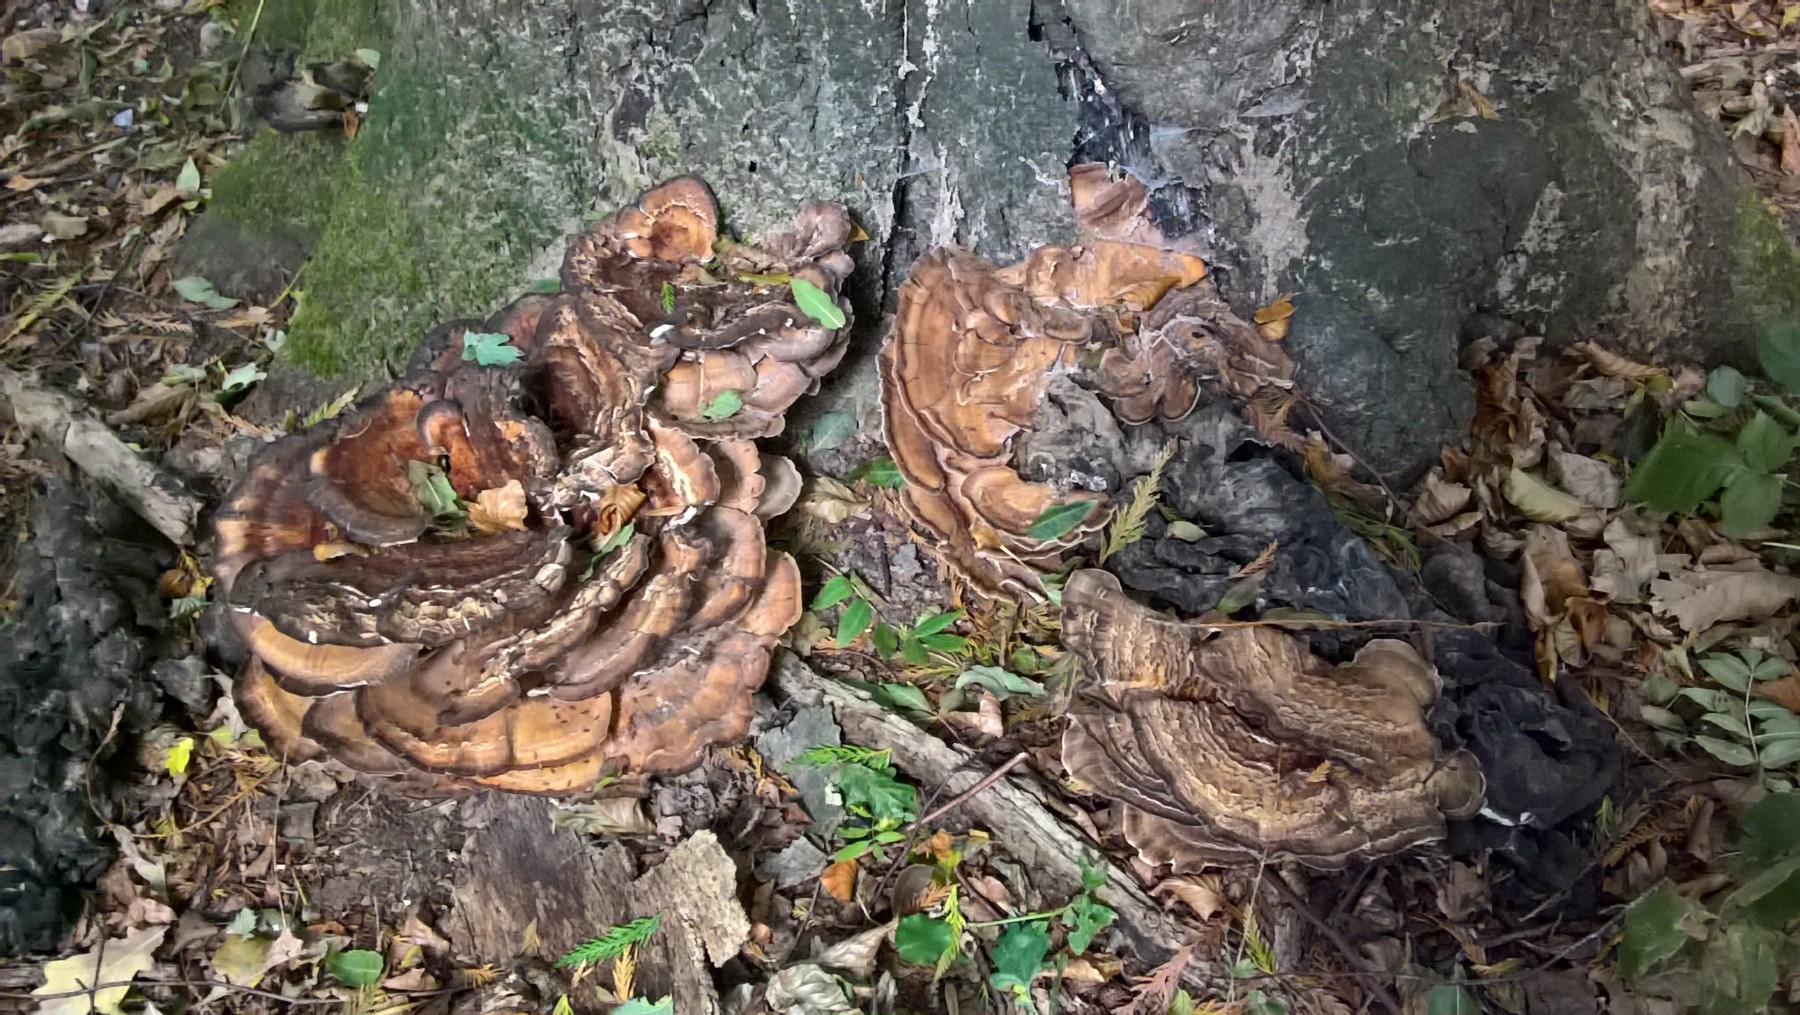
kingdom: Fungi
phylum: Basidiomycota
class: Agaricomycetes
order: Polyporales
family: Meripilaceae
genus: Meripilus
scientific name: Meripilus giganteus
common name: kæmpeporesvamp
